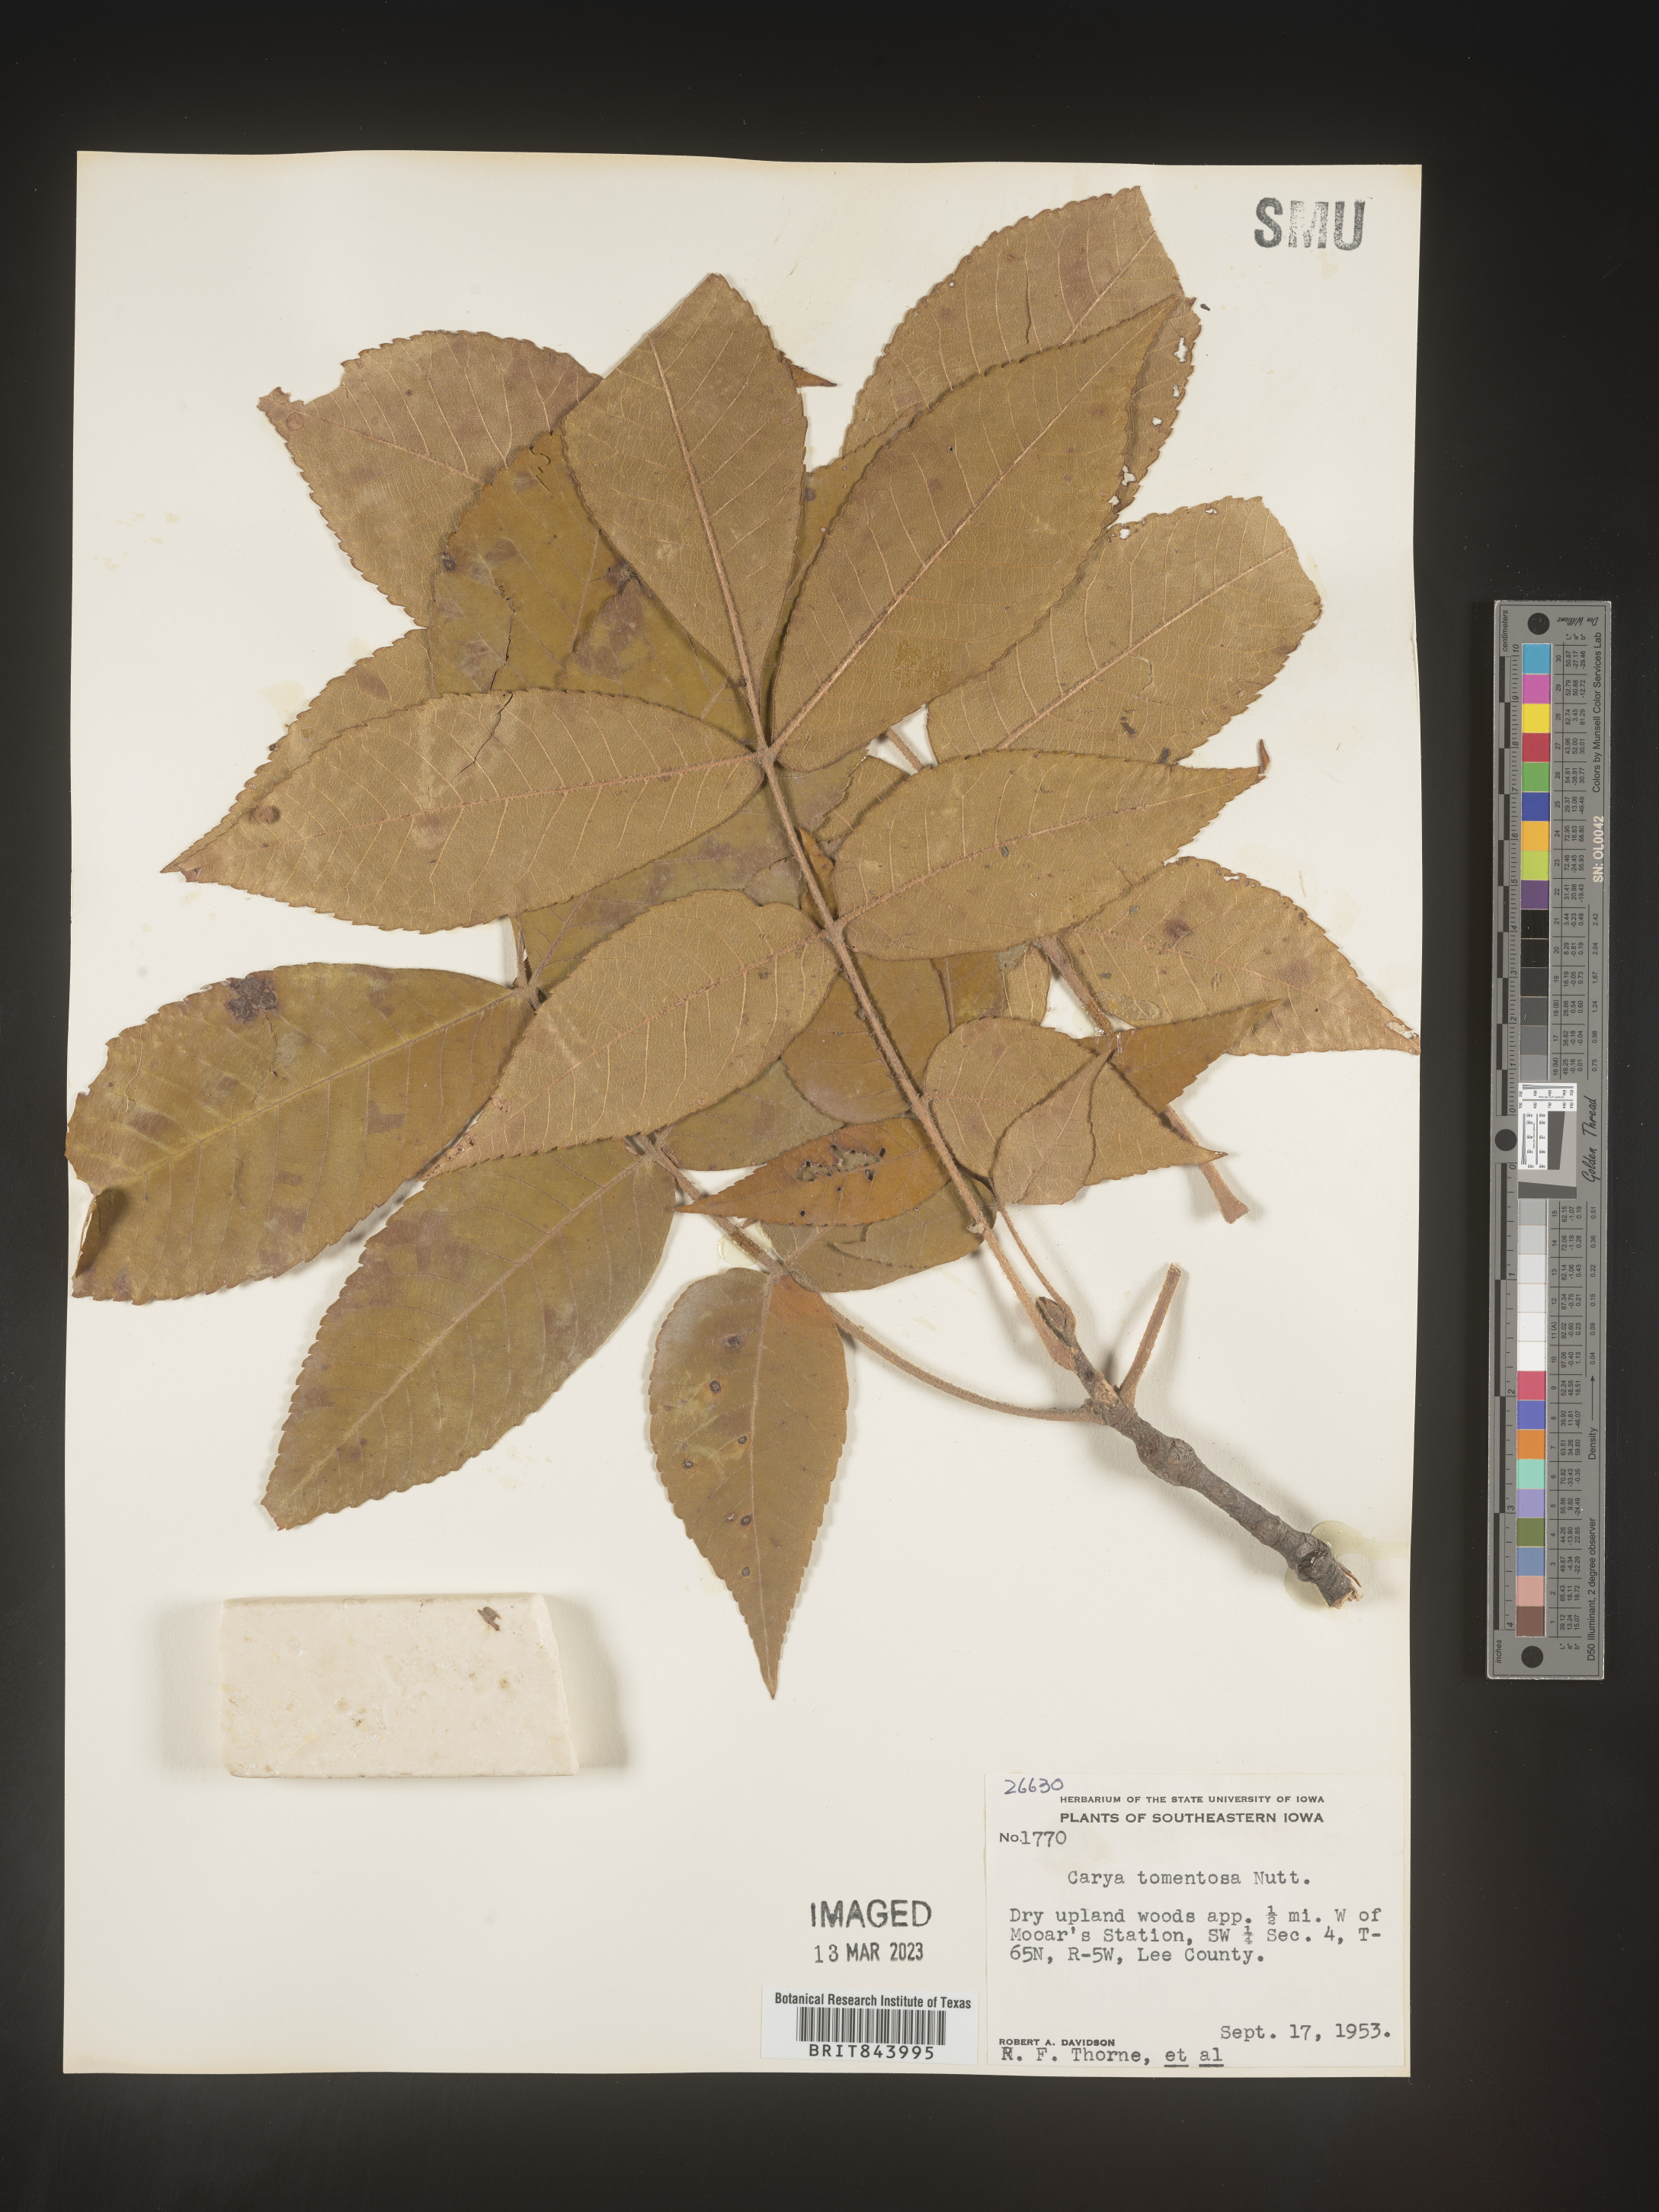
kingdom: Plantae
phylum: Tracheophyta
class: Magnoliopsida
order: Fagales
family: Juglandaceae
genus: Carya
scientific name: Carya alba
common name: Mockernut hickory
